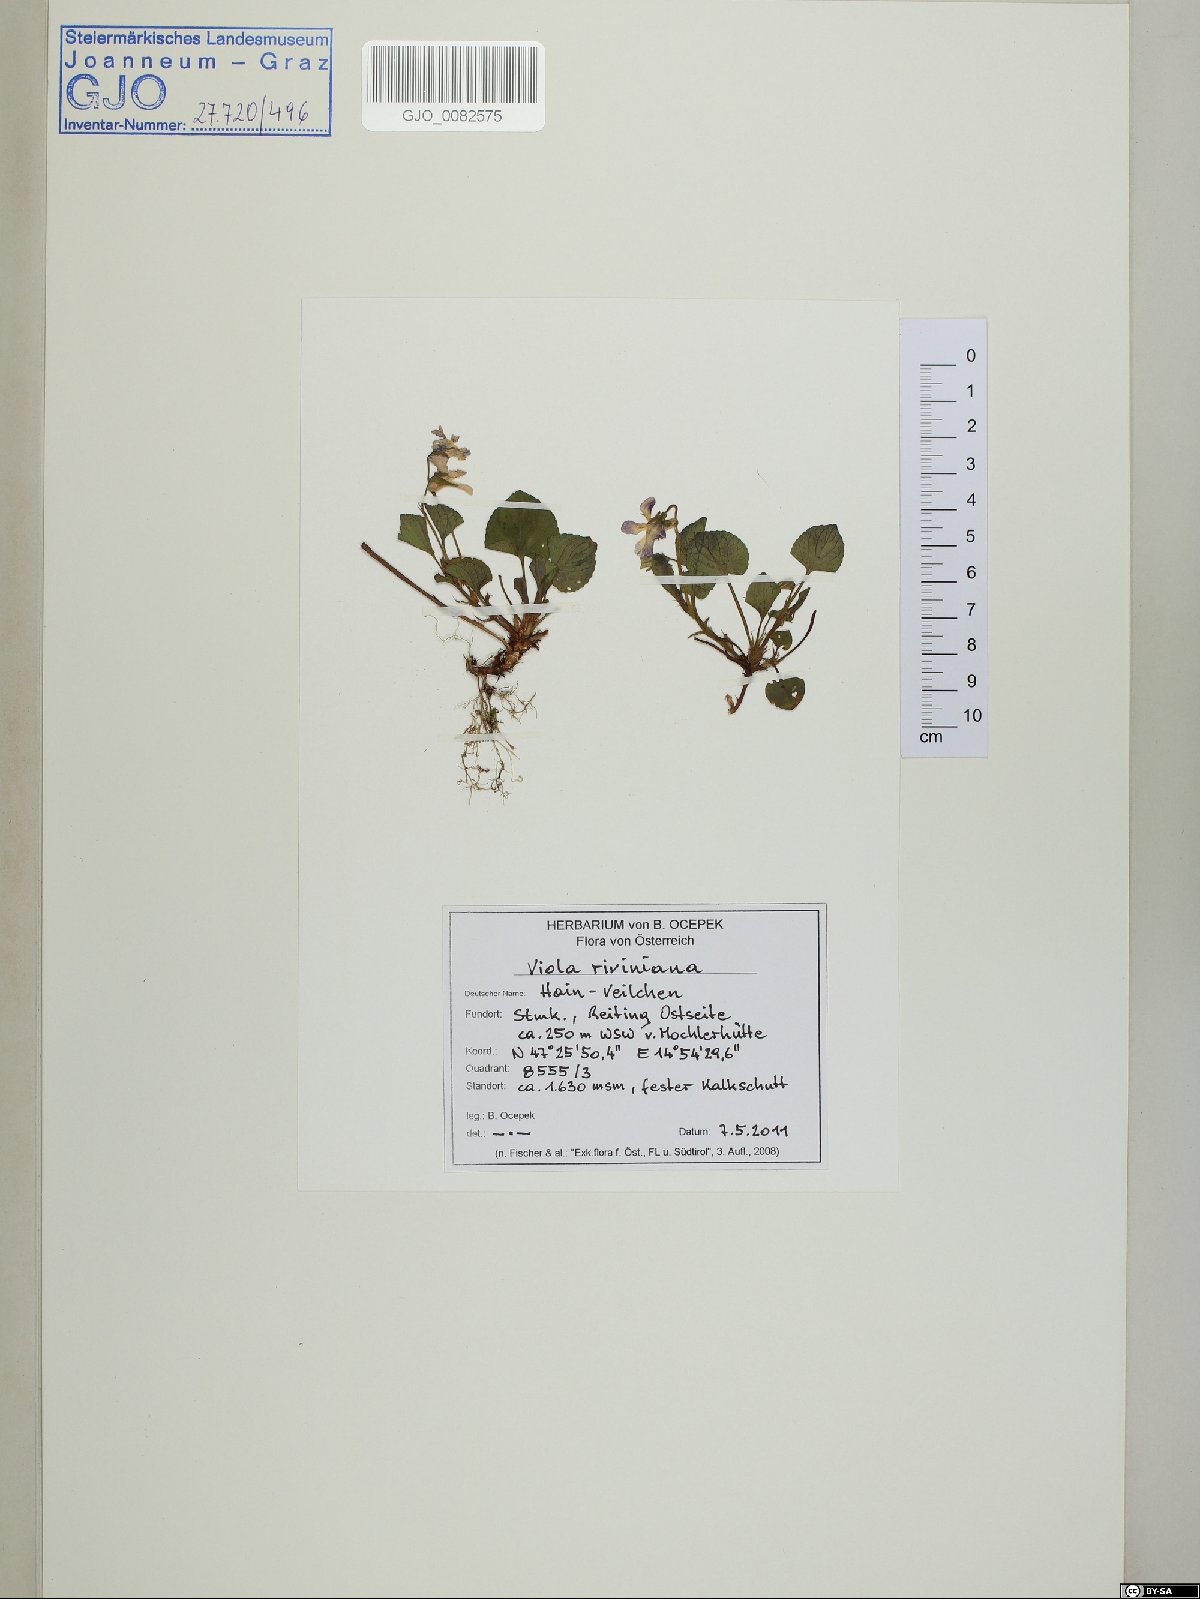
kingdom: Plantae
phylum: Tracheophyta
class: Magnoliopsida
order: Malpighiales
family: Violaceae
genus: Viola
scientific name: Viola riviniana
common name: Common dog-violet
